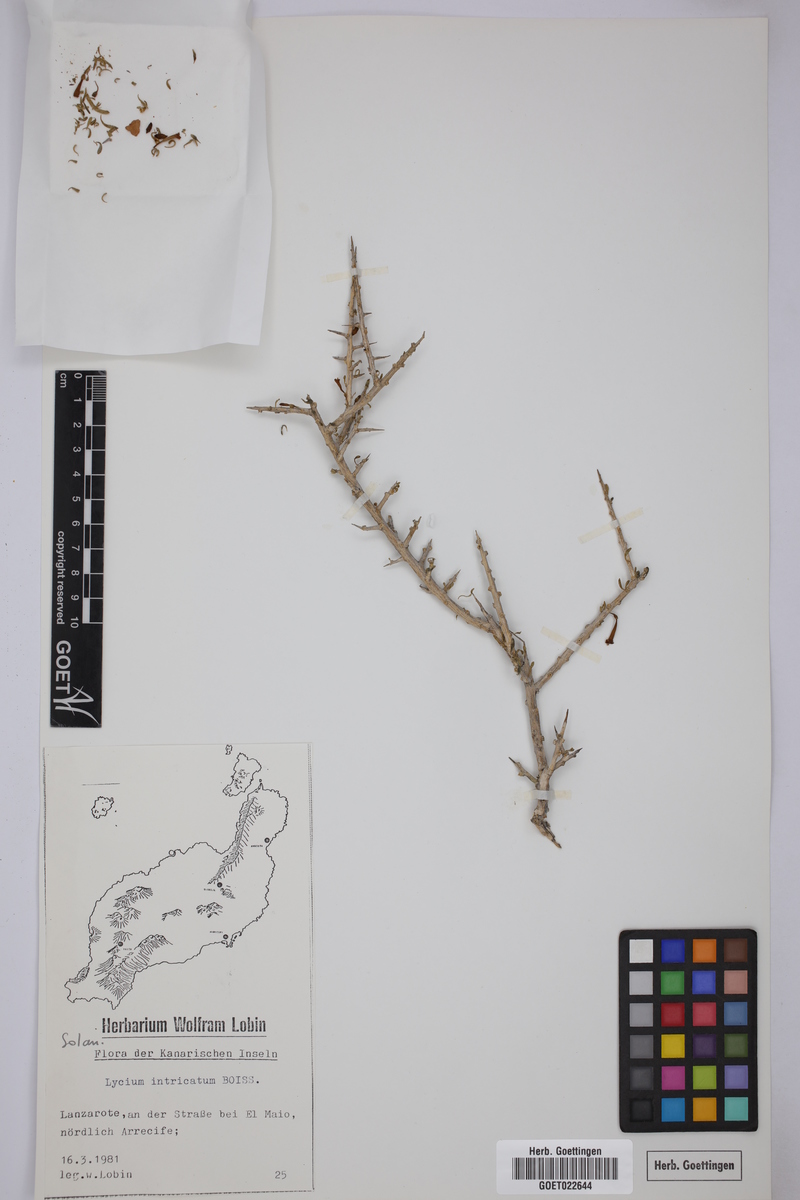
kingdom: Plantae
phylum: Tracheophyta
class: Magnoliopsida
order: Solanales
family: Solanaceae
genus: Lycium
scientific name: Lycium intricatum
